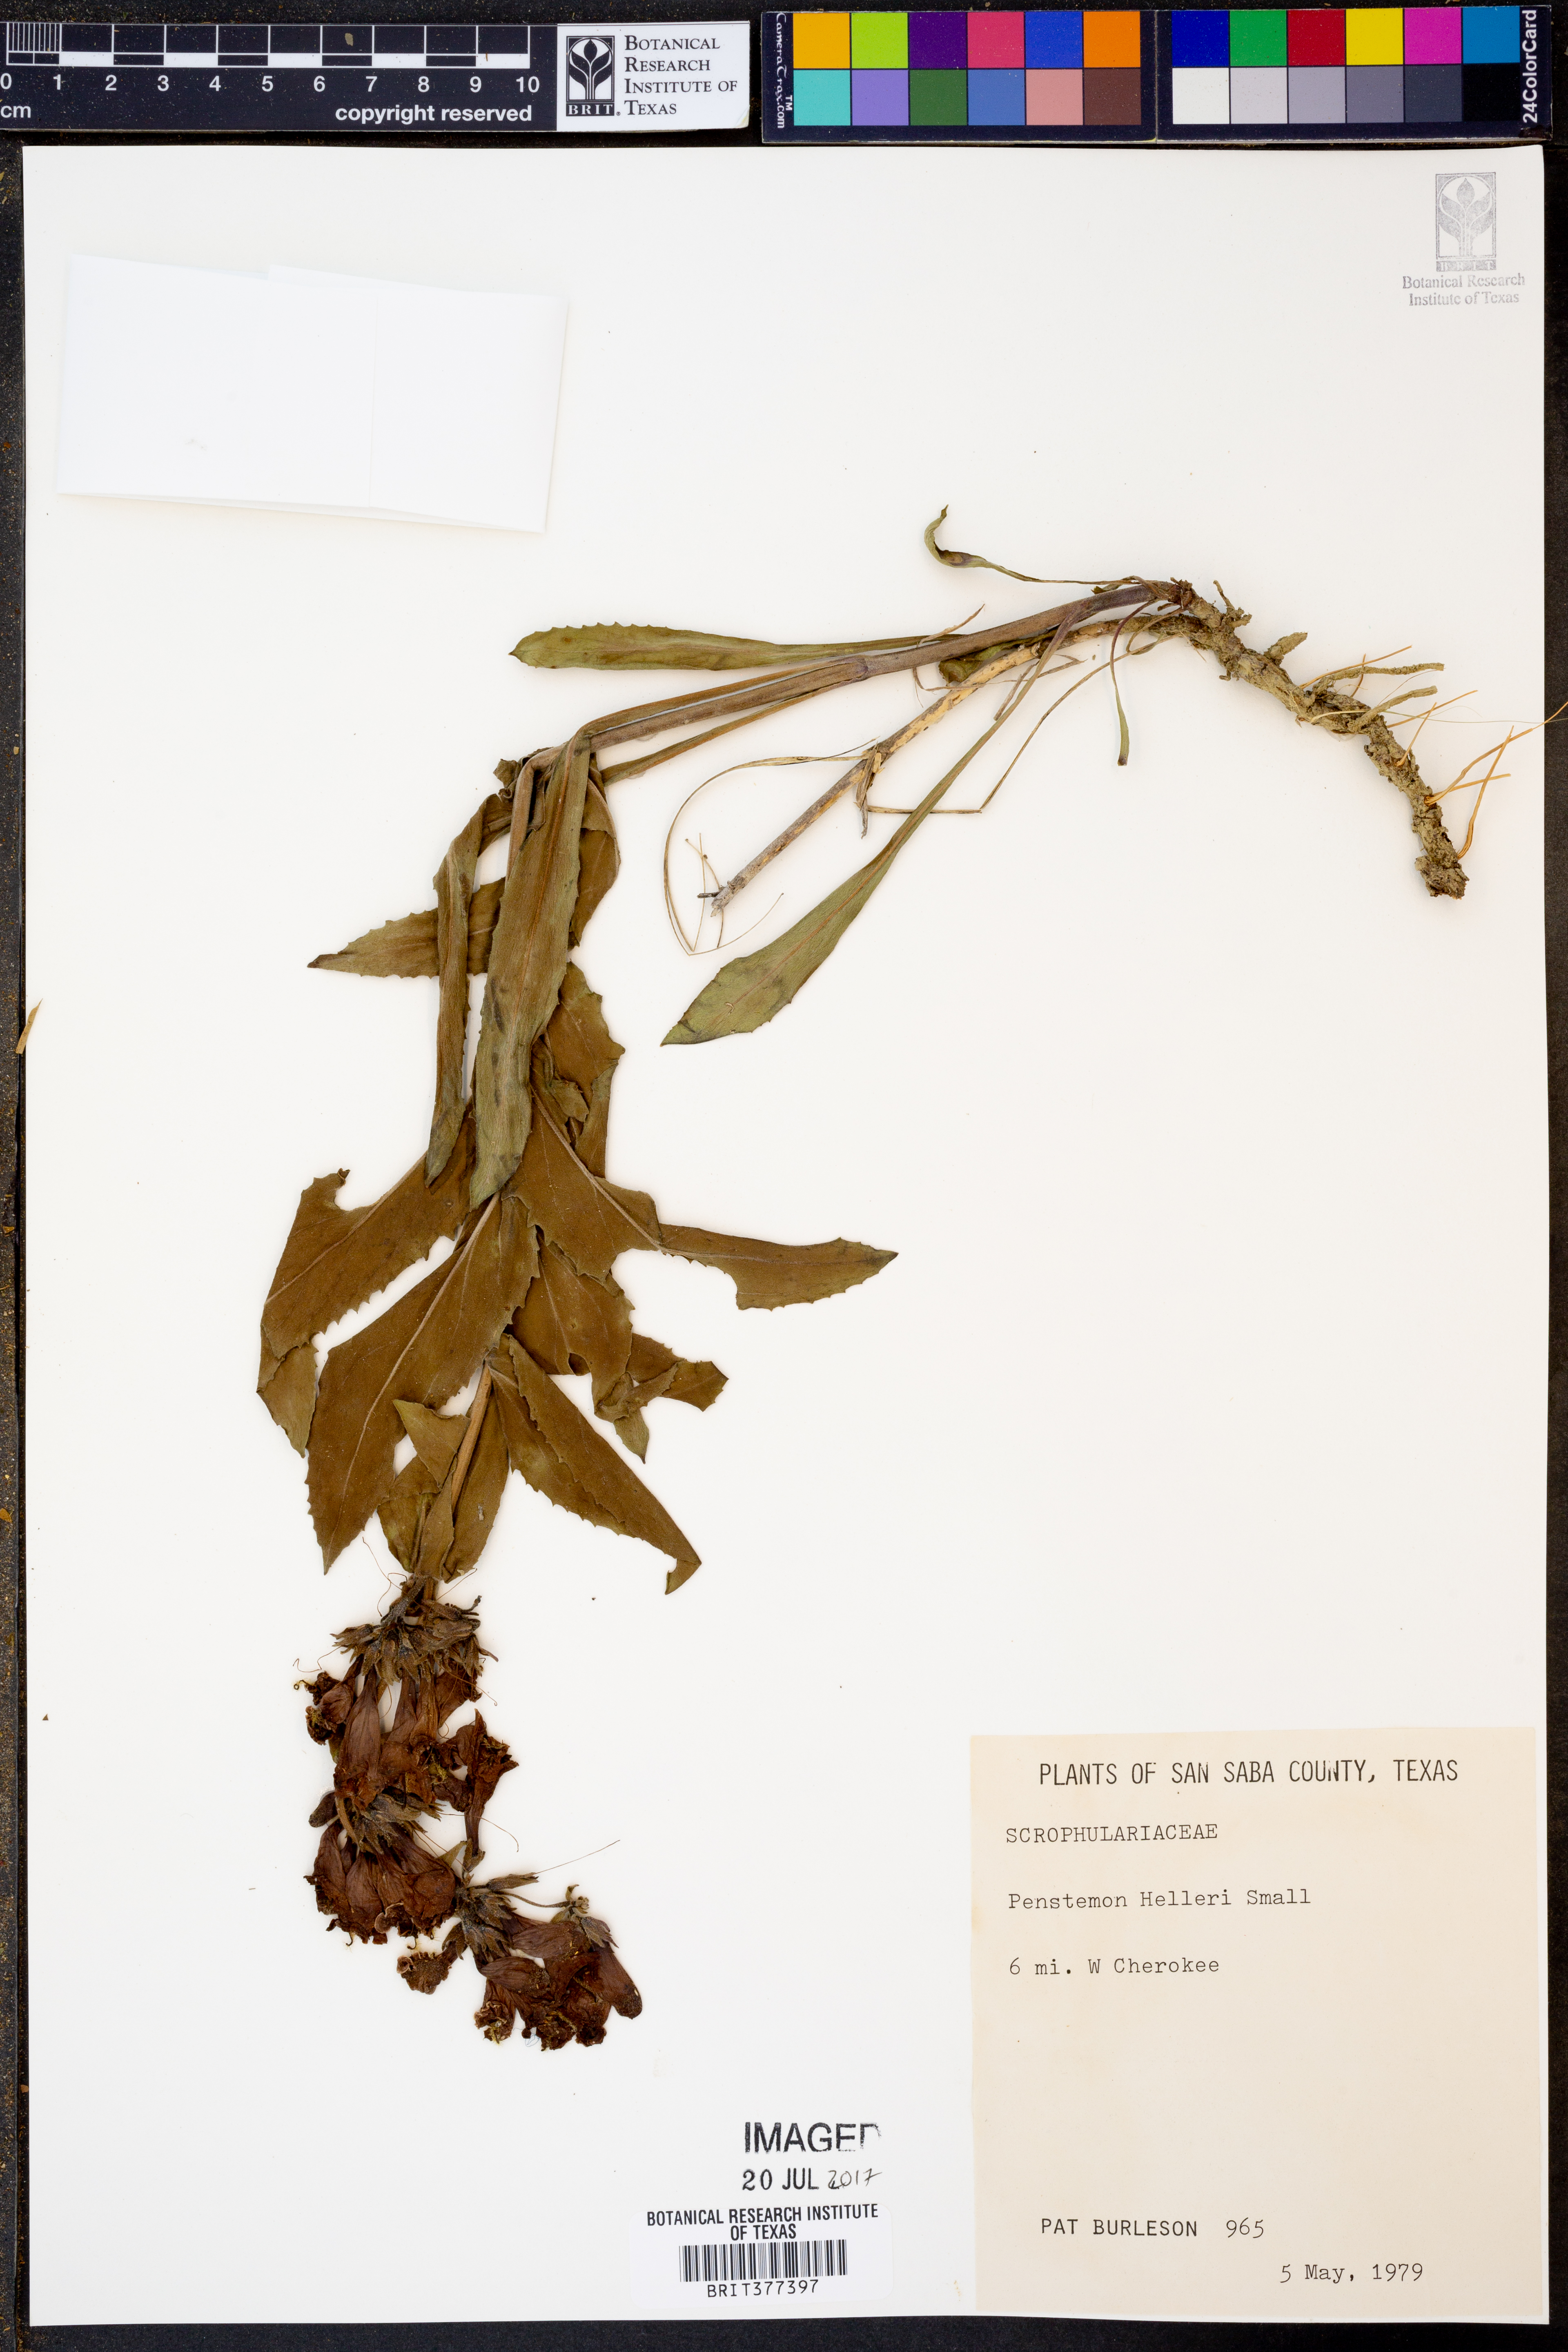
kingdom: Plantae
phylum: Tracheophyta
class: Magnoliopsida
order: Lamiales
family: Plantaginaceae
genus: Penstemon
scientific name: Penstemon triflorus
